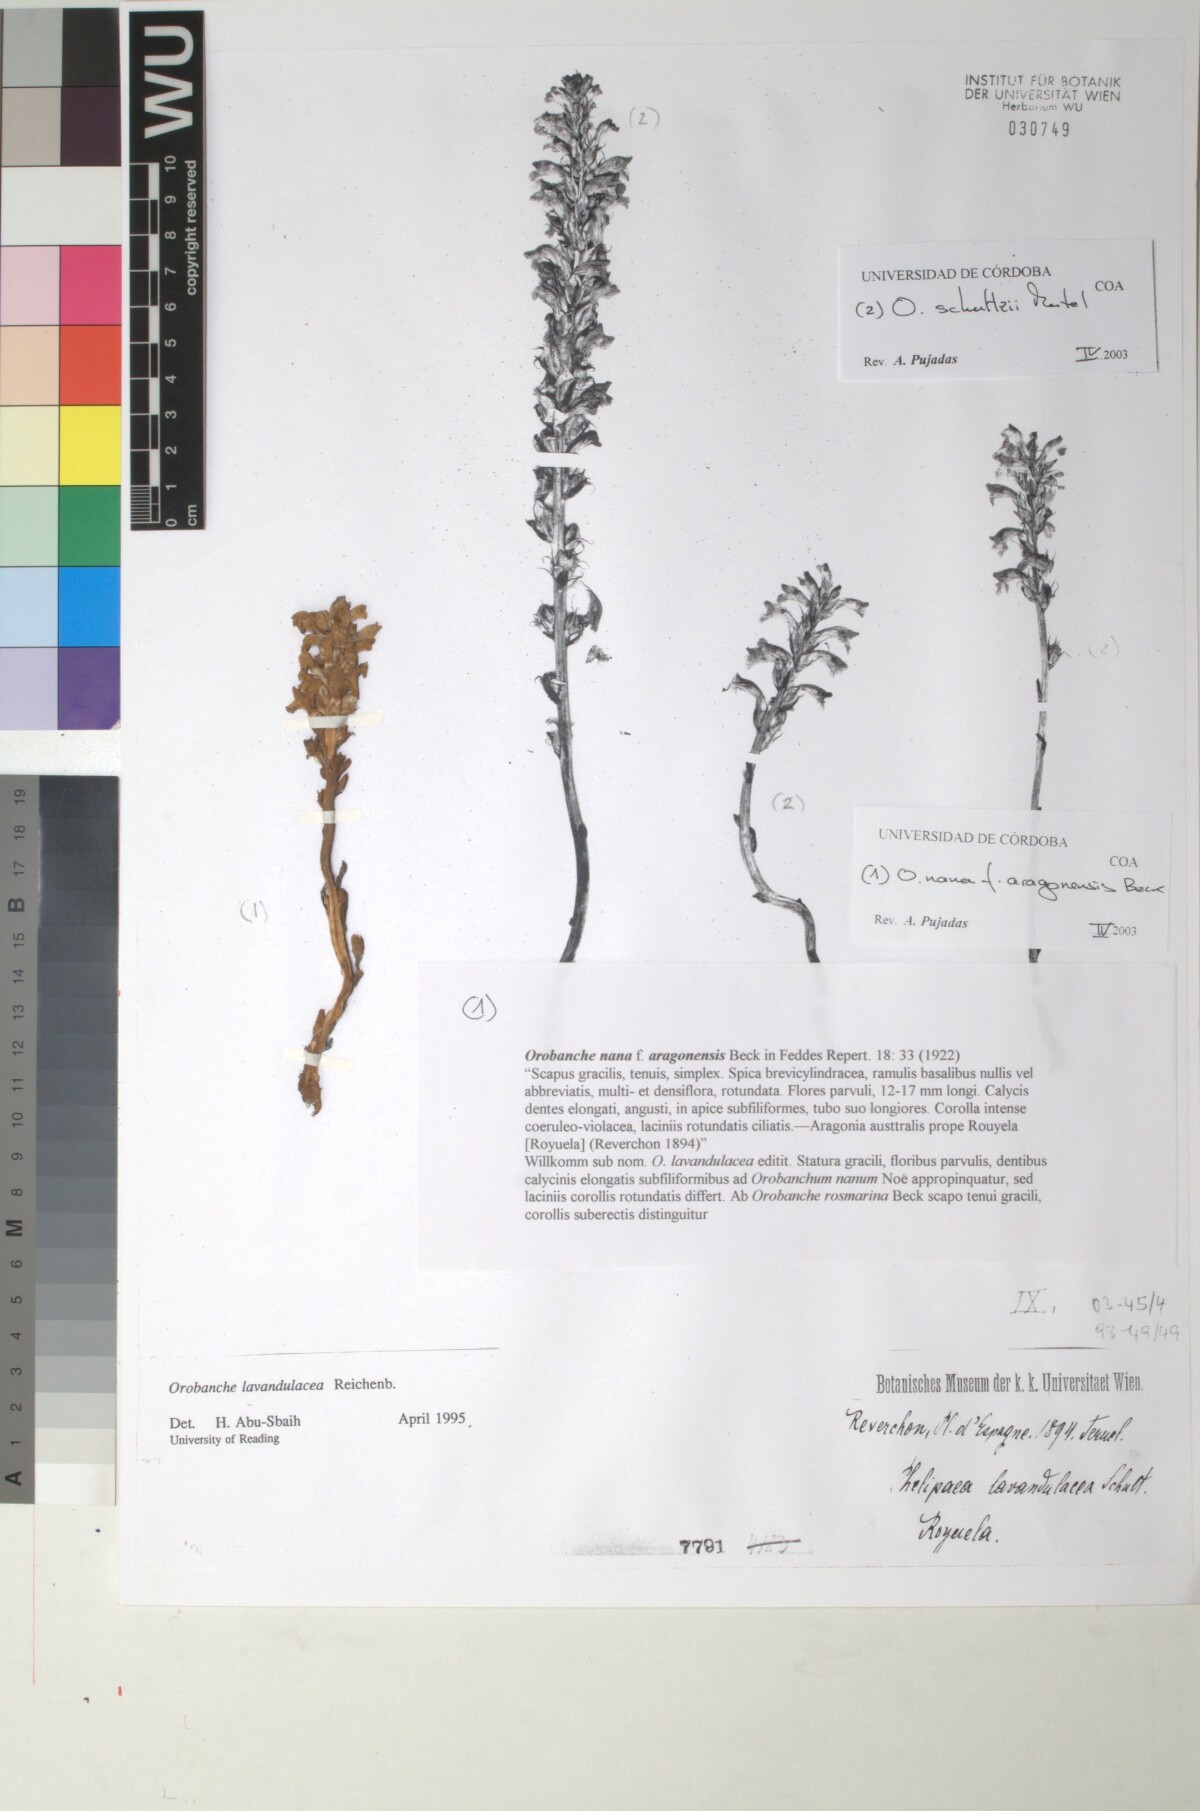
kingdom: Plantae
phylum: Tracheophyta
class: Magnoliopsida
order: Lamiales
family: Orobanchaceae
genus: Phelipanche
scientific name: Phelipanche mutelii
